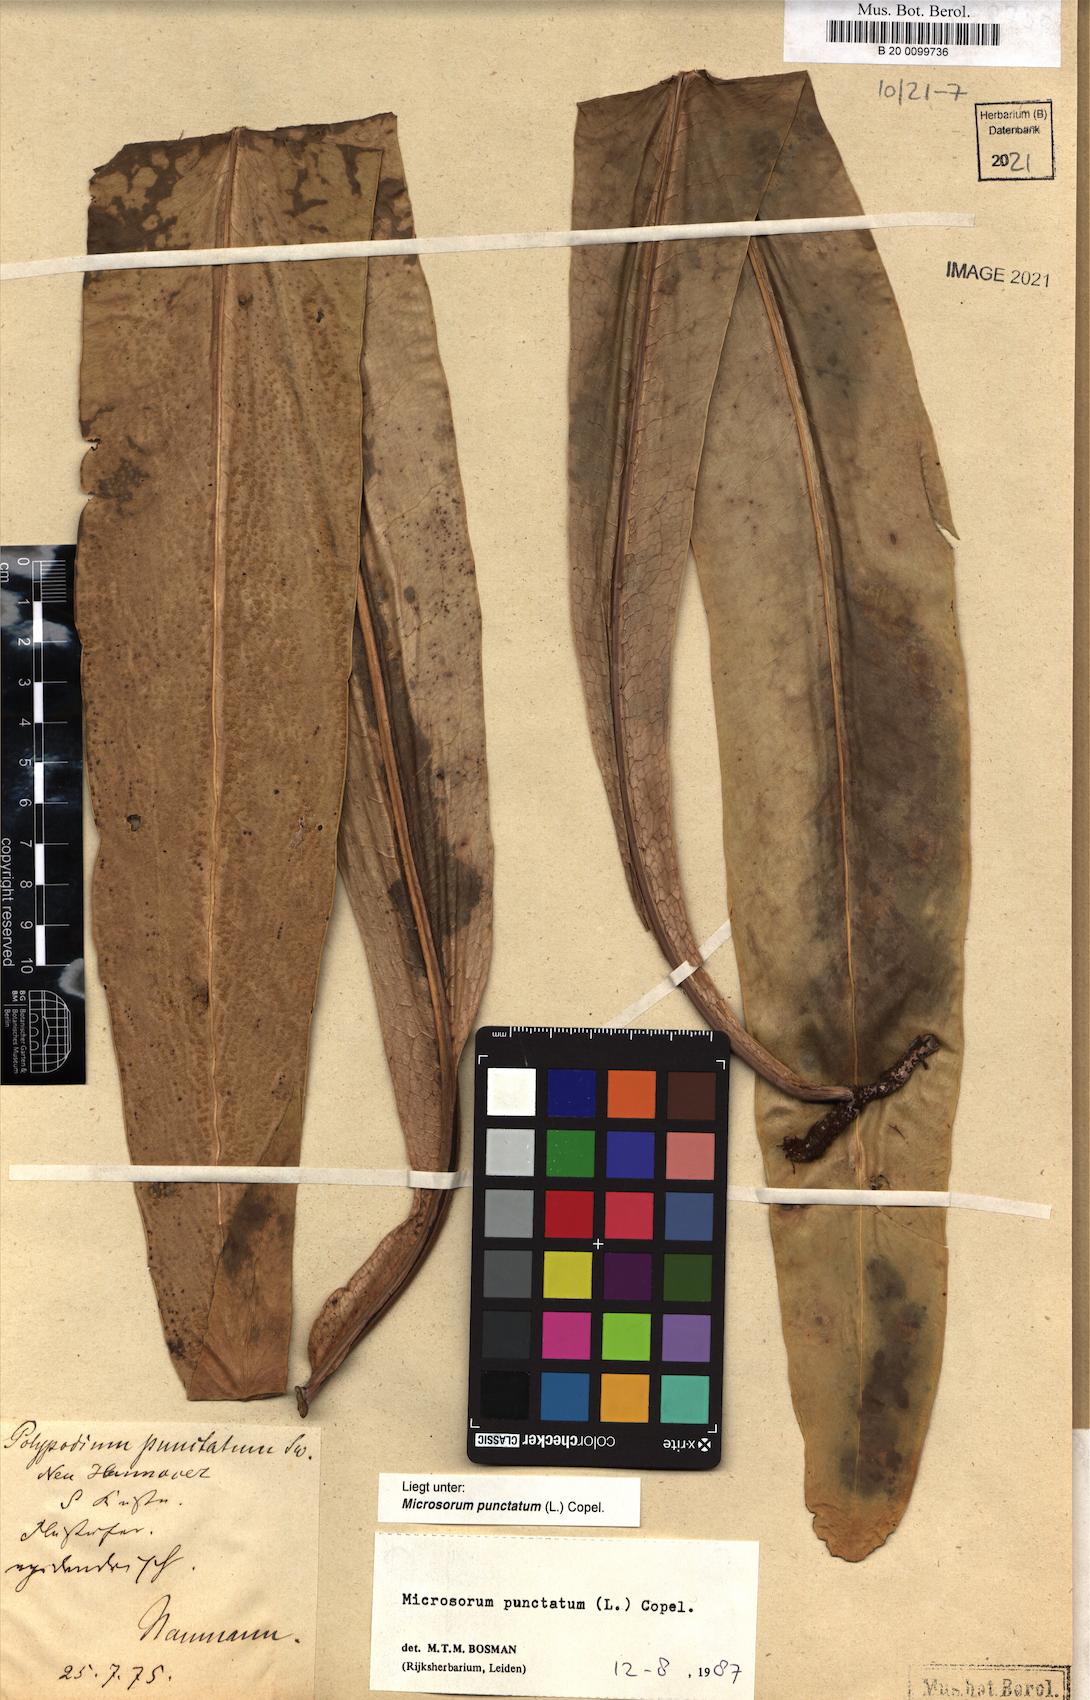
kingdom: Plantae
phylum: Tracheophyta
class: Polypodiopsida
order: Polypodiales
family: Polypodiaceae
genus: Microsorum
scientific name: Microsorum punctatum
